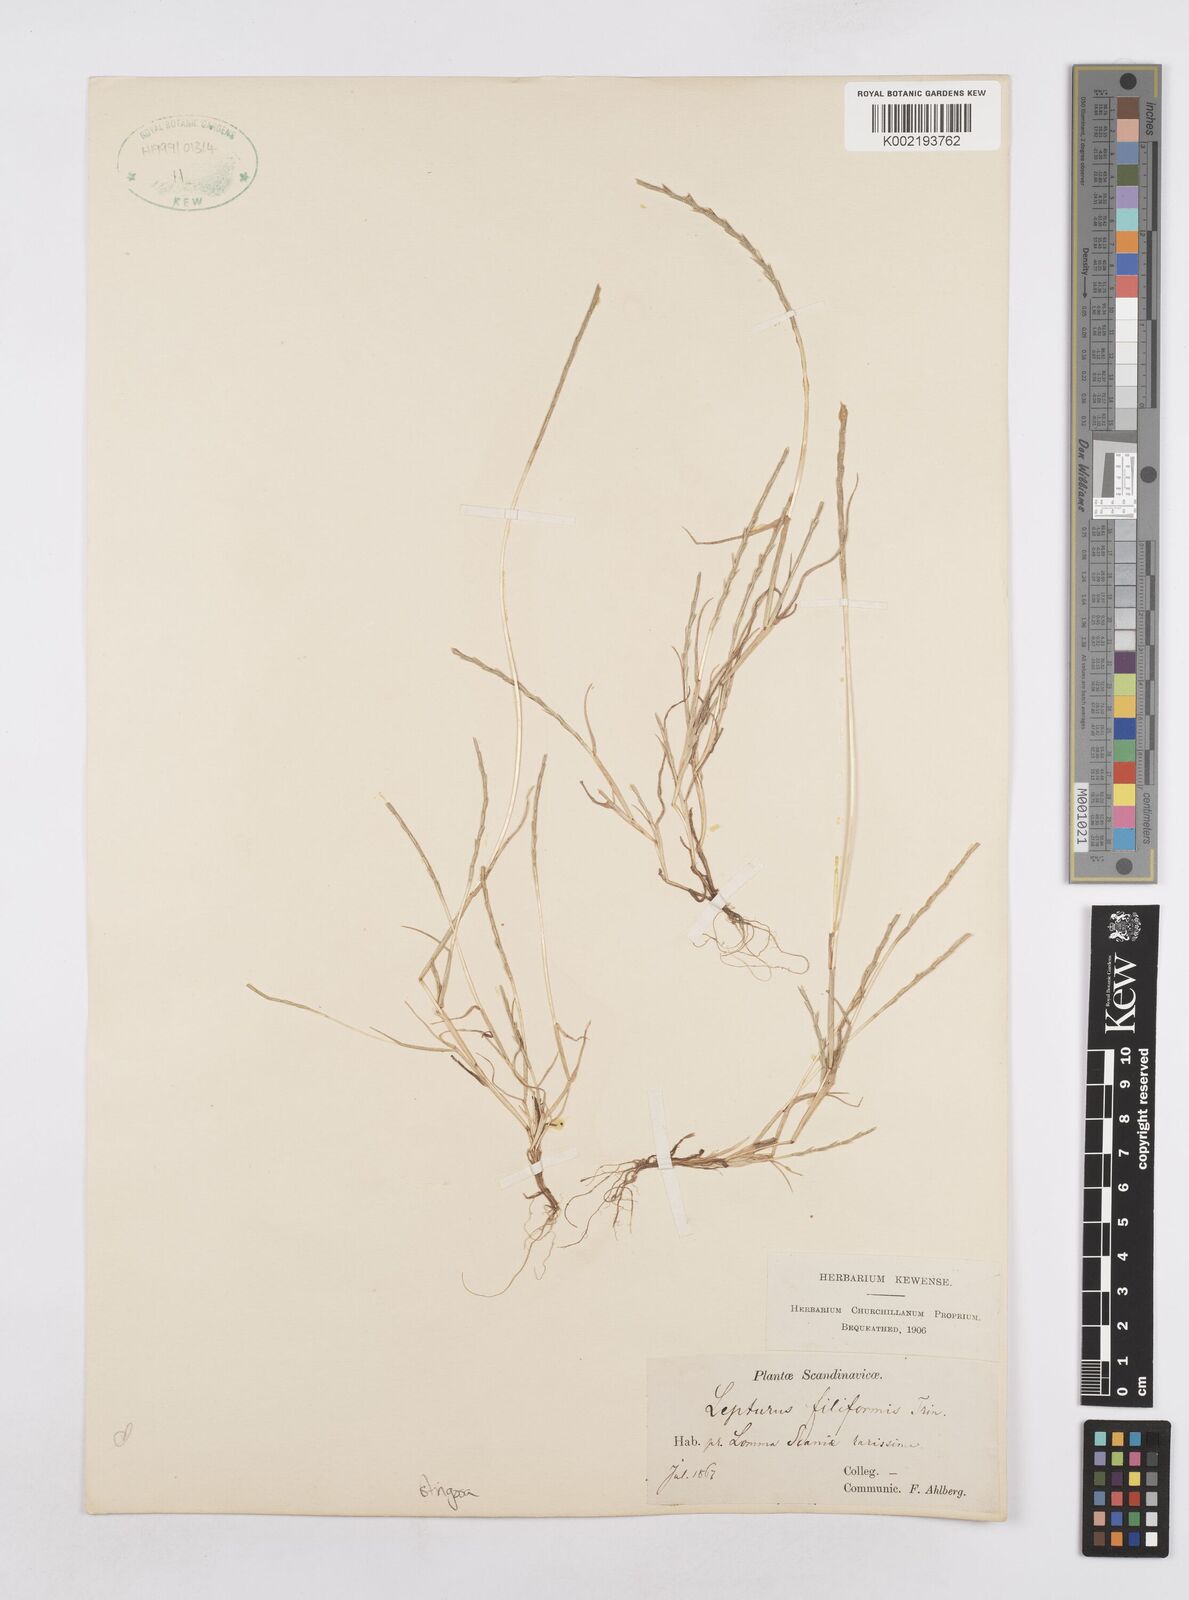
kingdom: Plantae
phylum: Tracheophyta
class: Liliopsida
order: Poales
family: Poaceae
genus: Parapholis
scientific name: Parapholis
